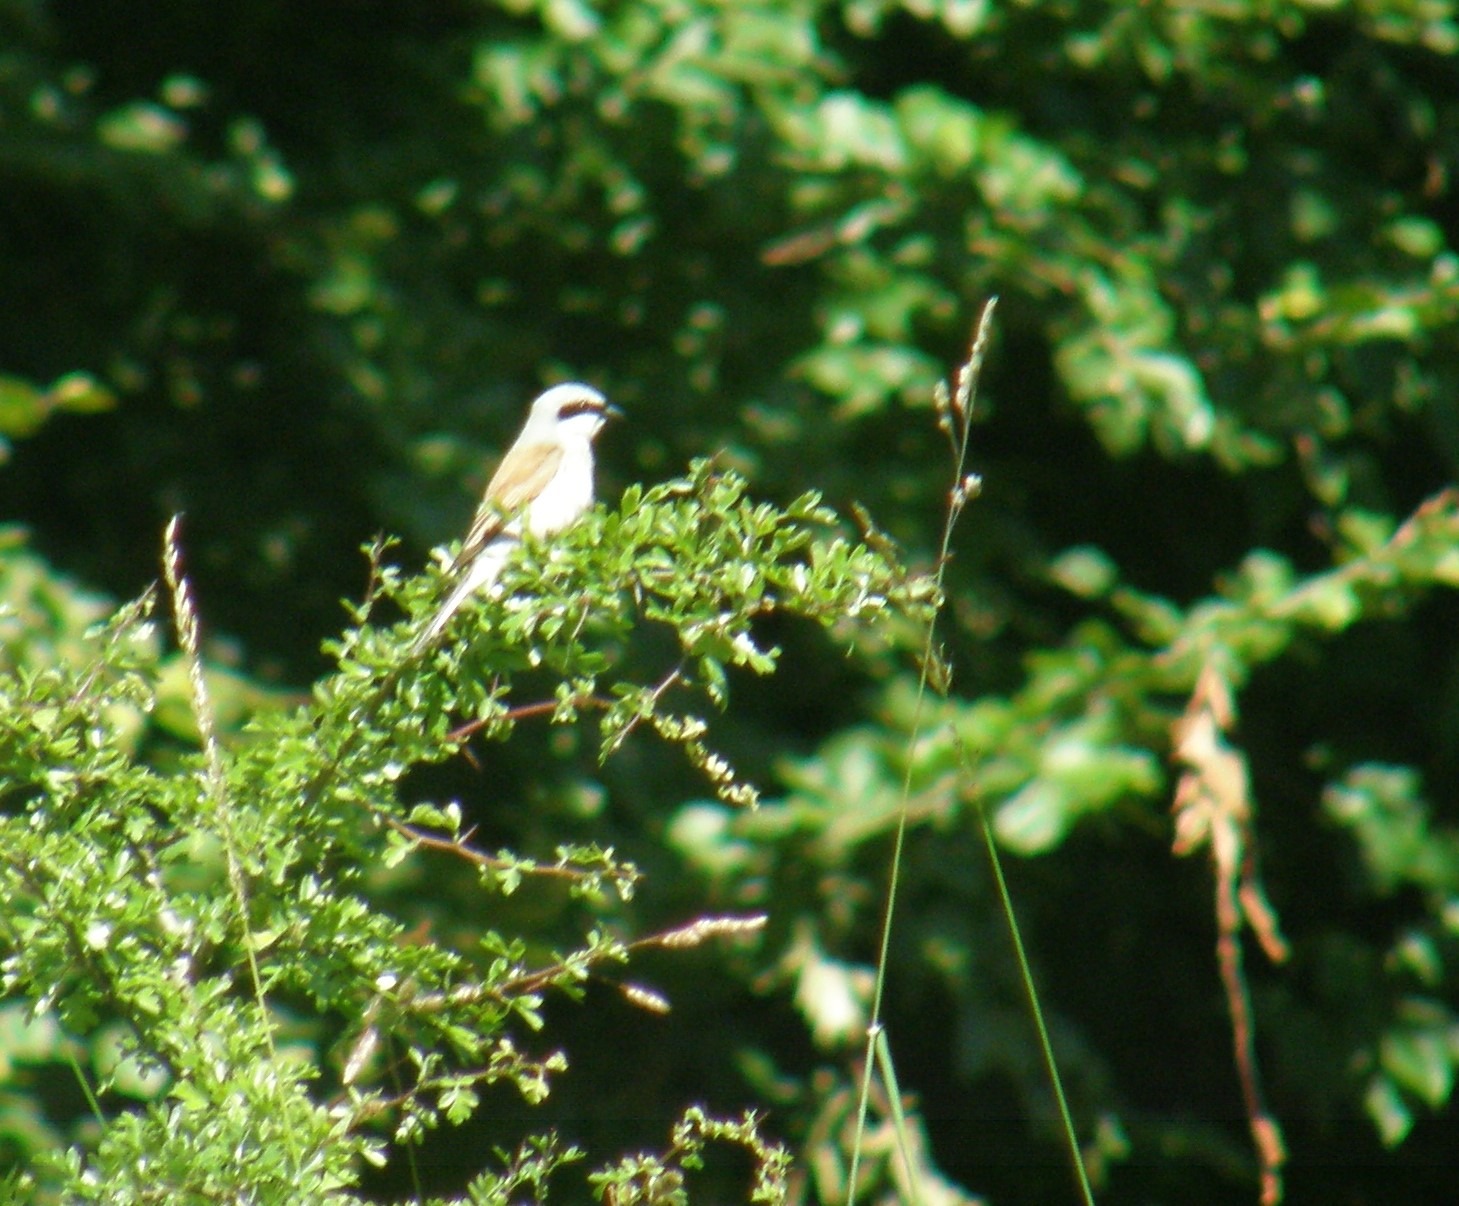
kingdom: Animalia
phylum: Chordata
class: Aves
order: Passeriformes
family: Laniidae
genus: Lanius
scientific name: Lanius collurio
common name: Rødrygget tornskade
